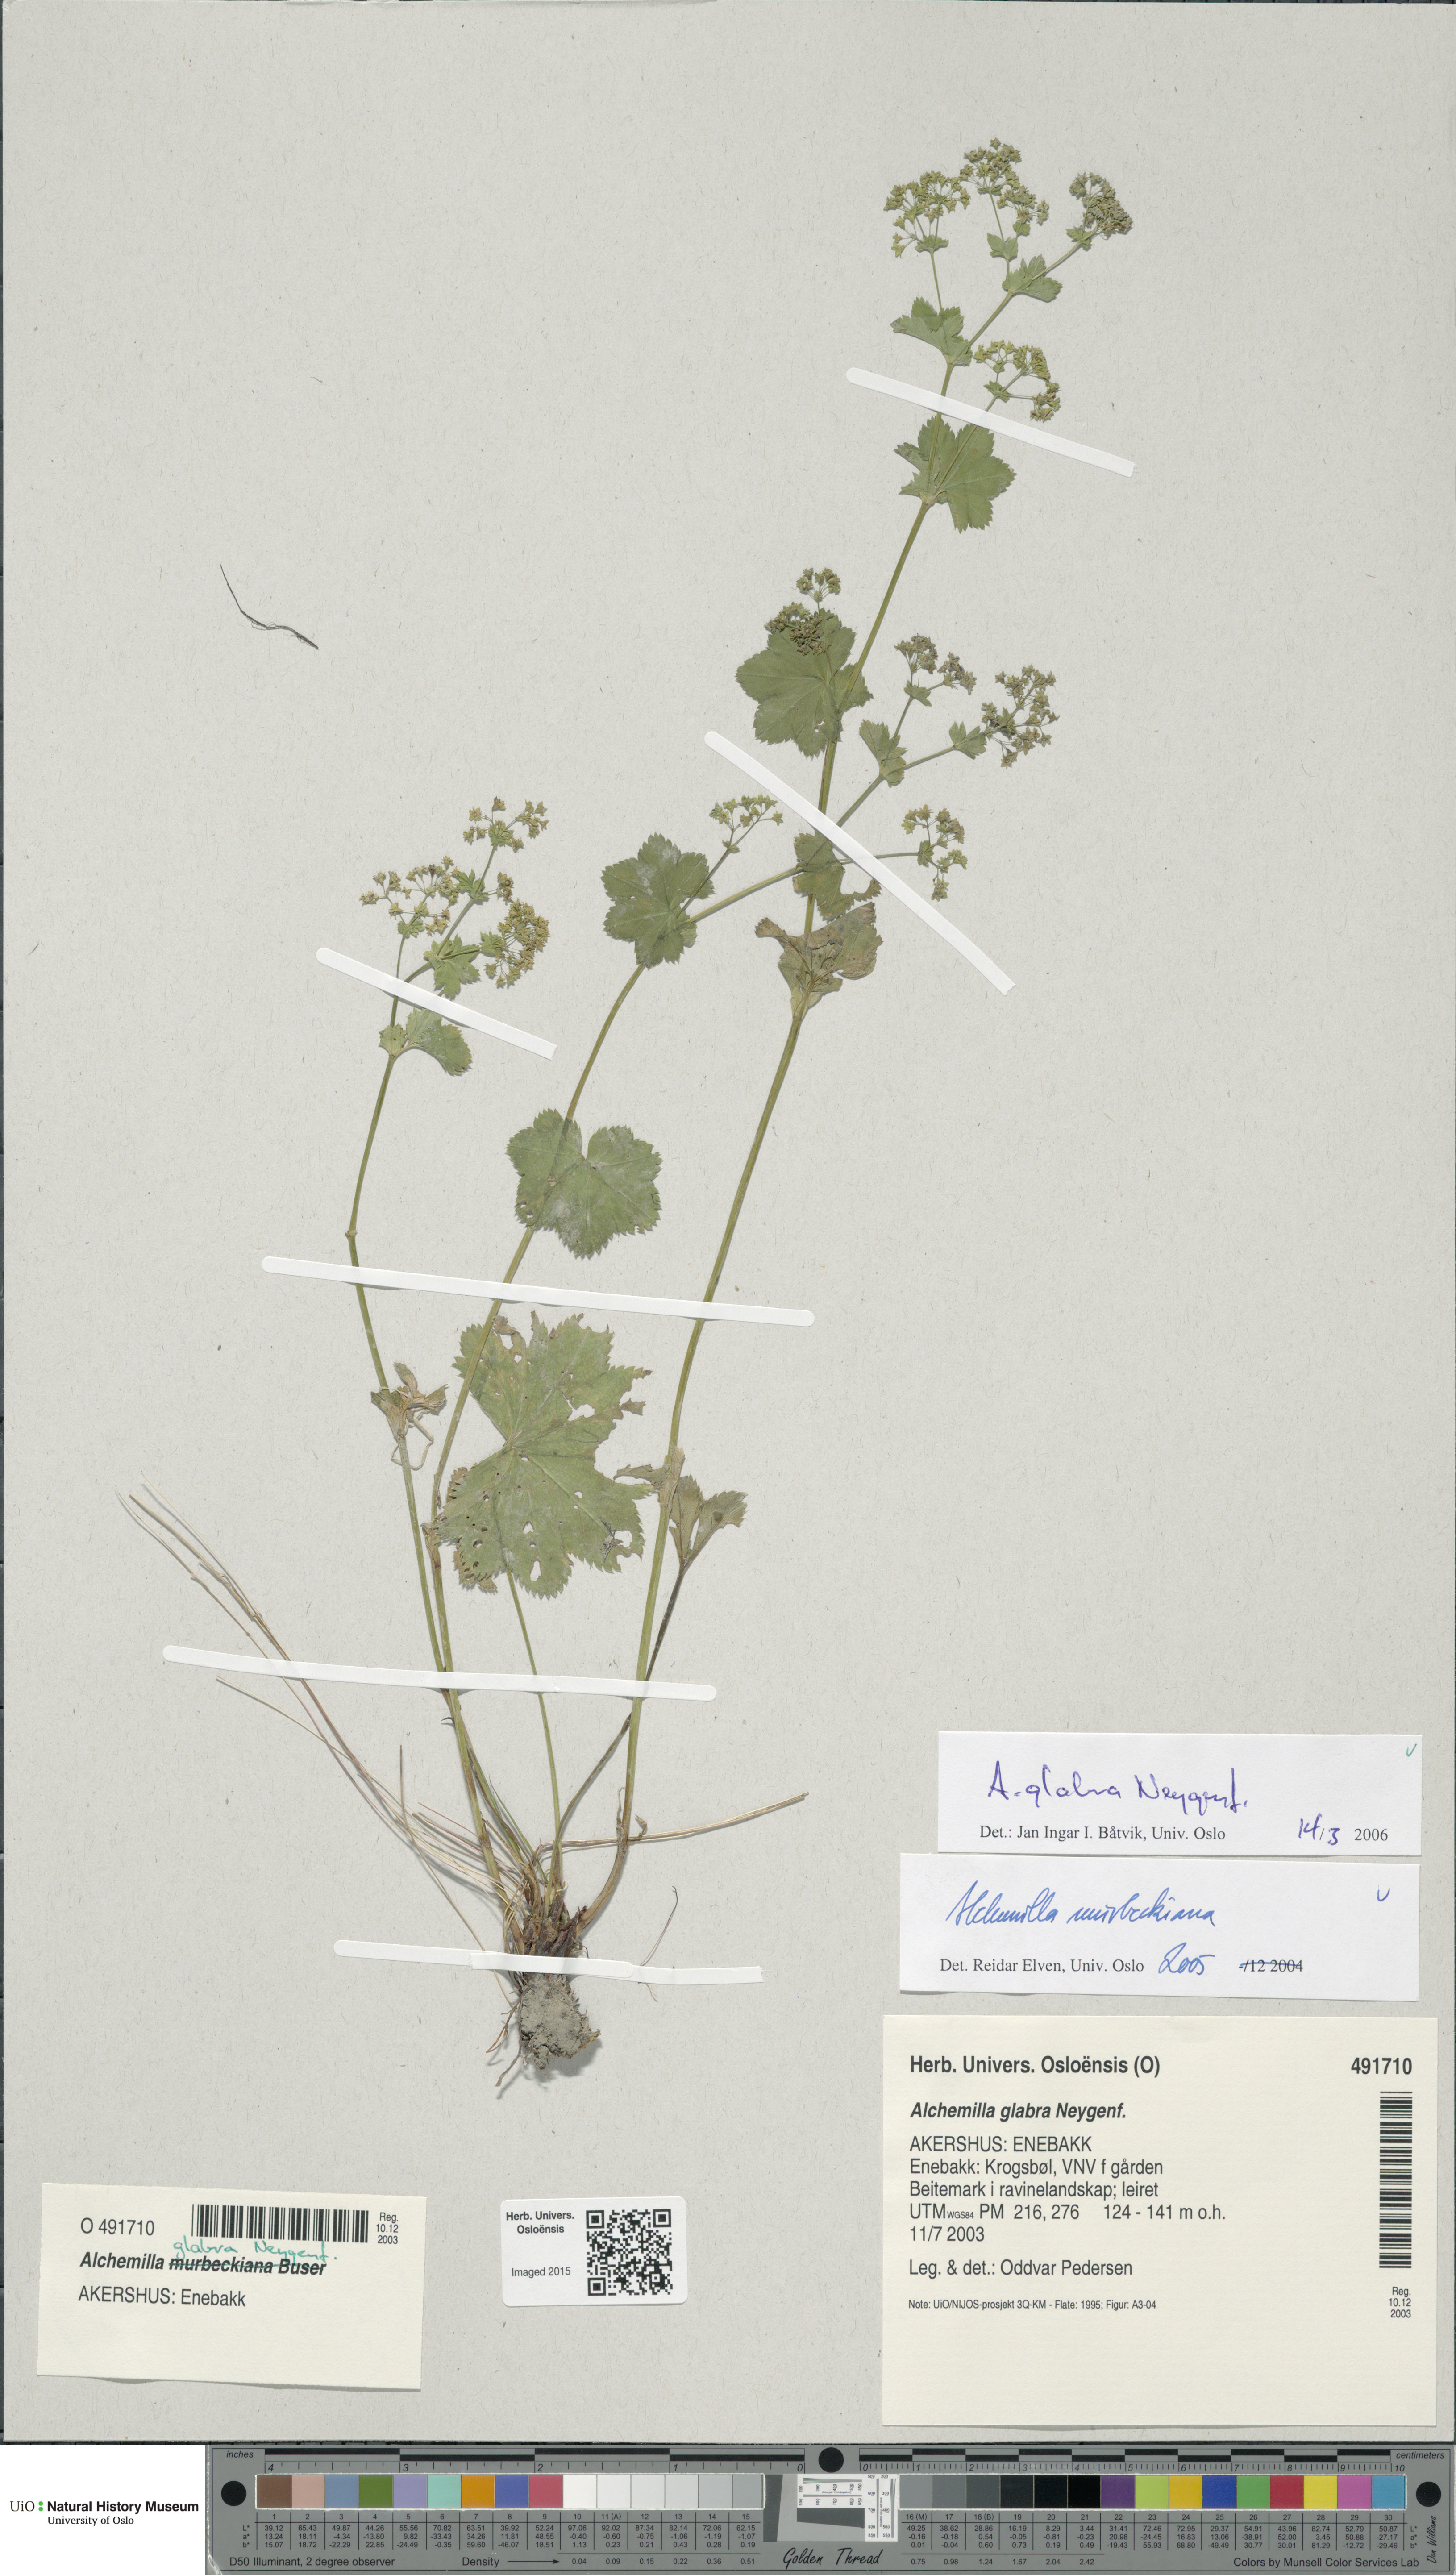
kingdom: Plantae
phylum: Tracheophyta
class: Magnoliopsida
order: Rosales
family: Rosaceae
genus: Alchemilla
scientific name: Alchemilla glabra
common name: Smooth lady's-mantle
